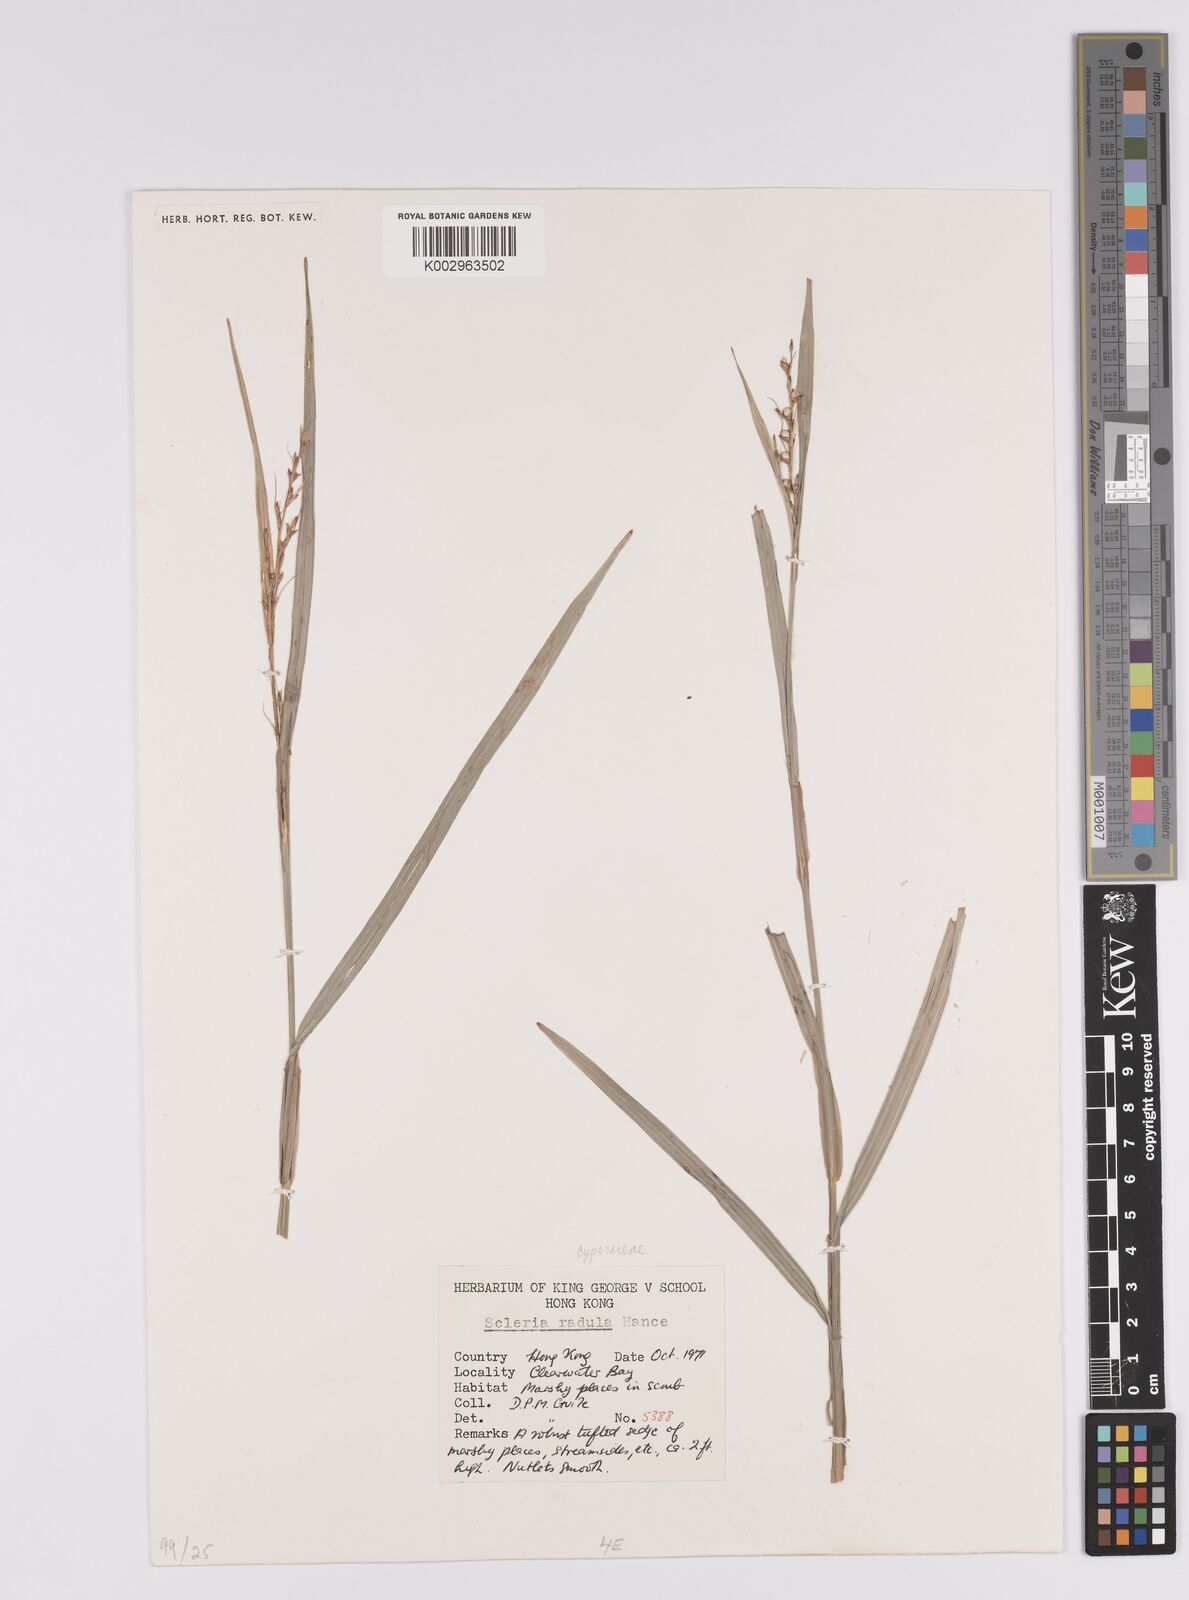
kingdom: Plantae
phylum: Tracheophyta
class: Liliopsida
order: Poales
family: Cyperaceae
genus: Scleria
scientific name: Scleria radula
